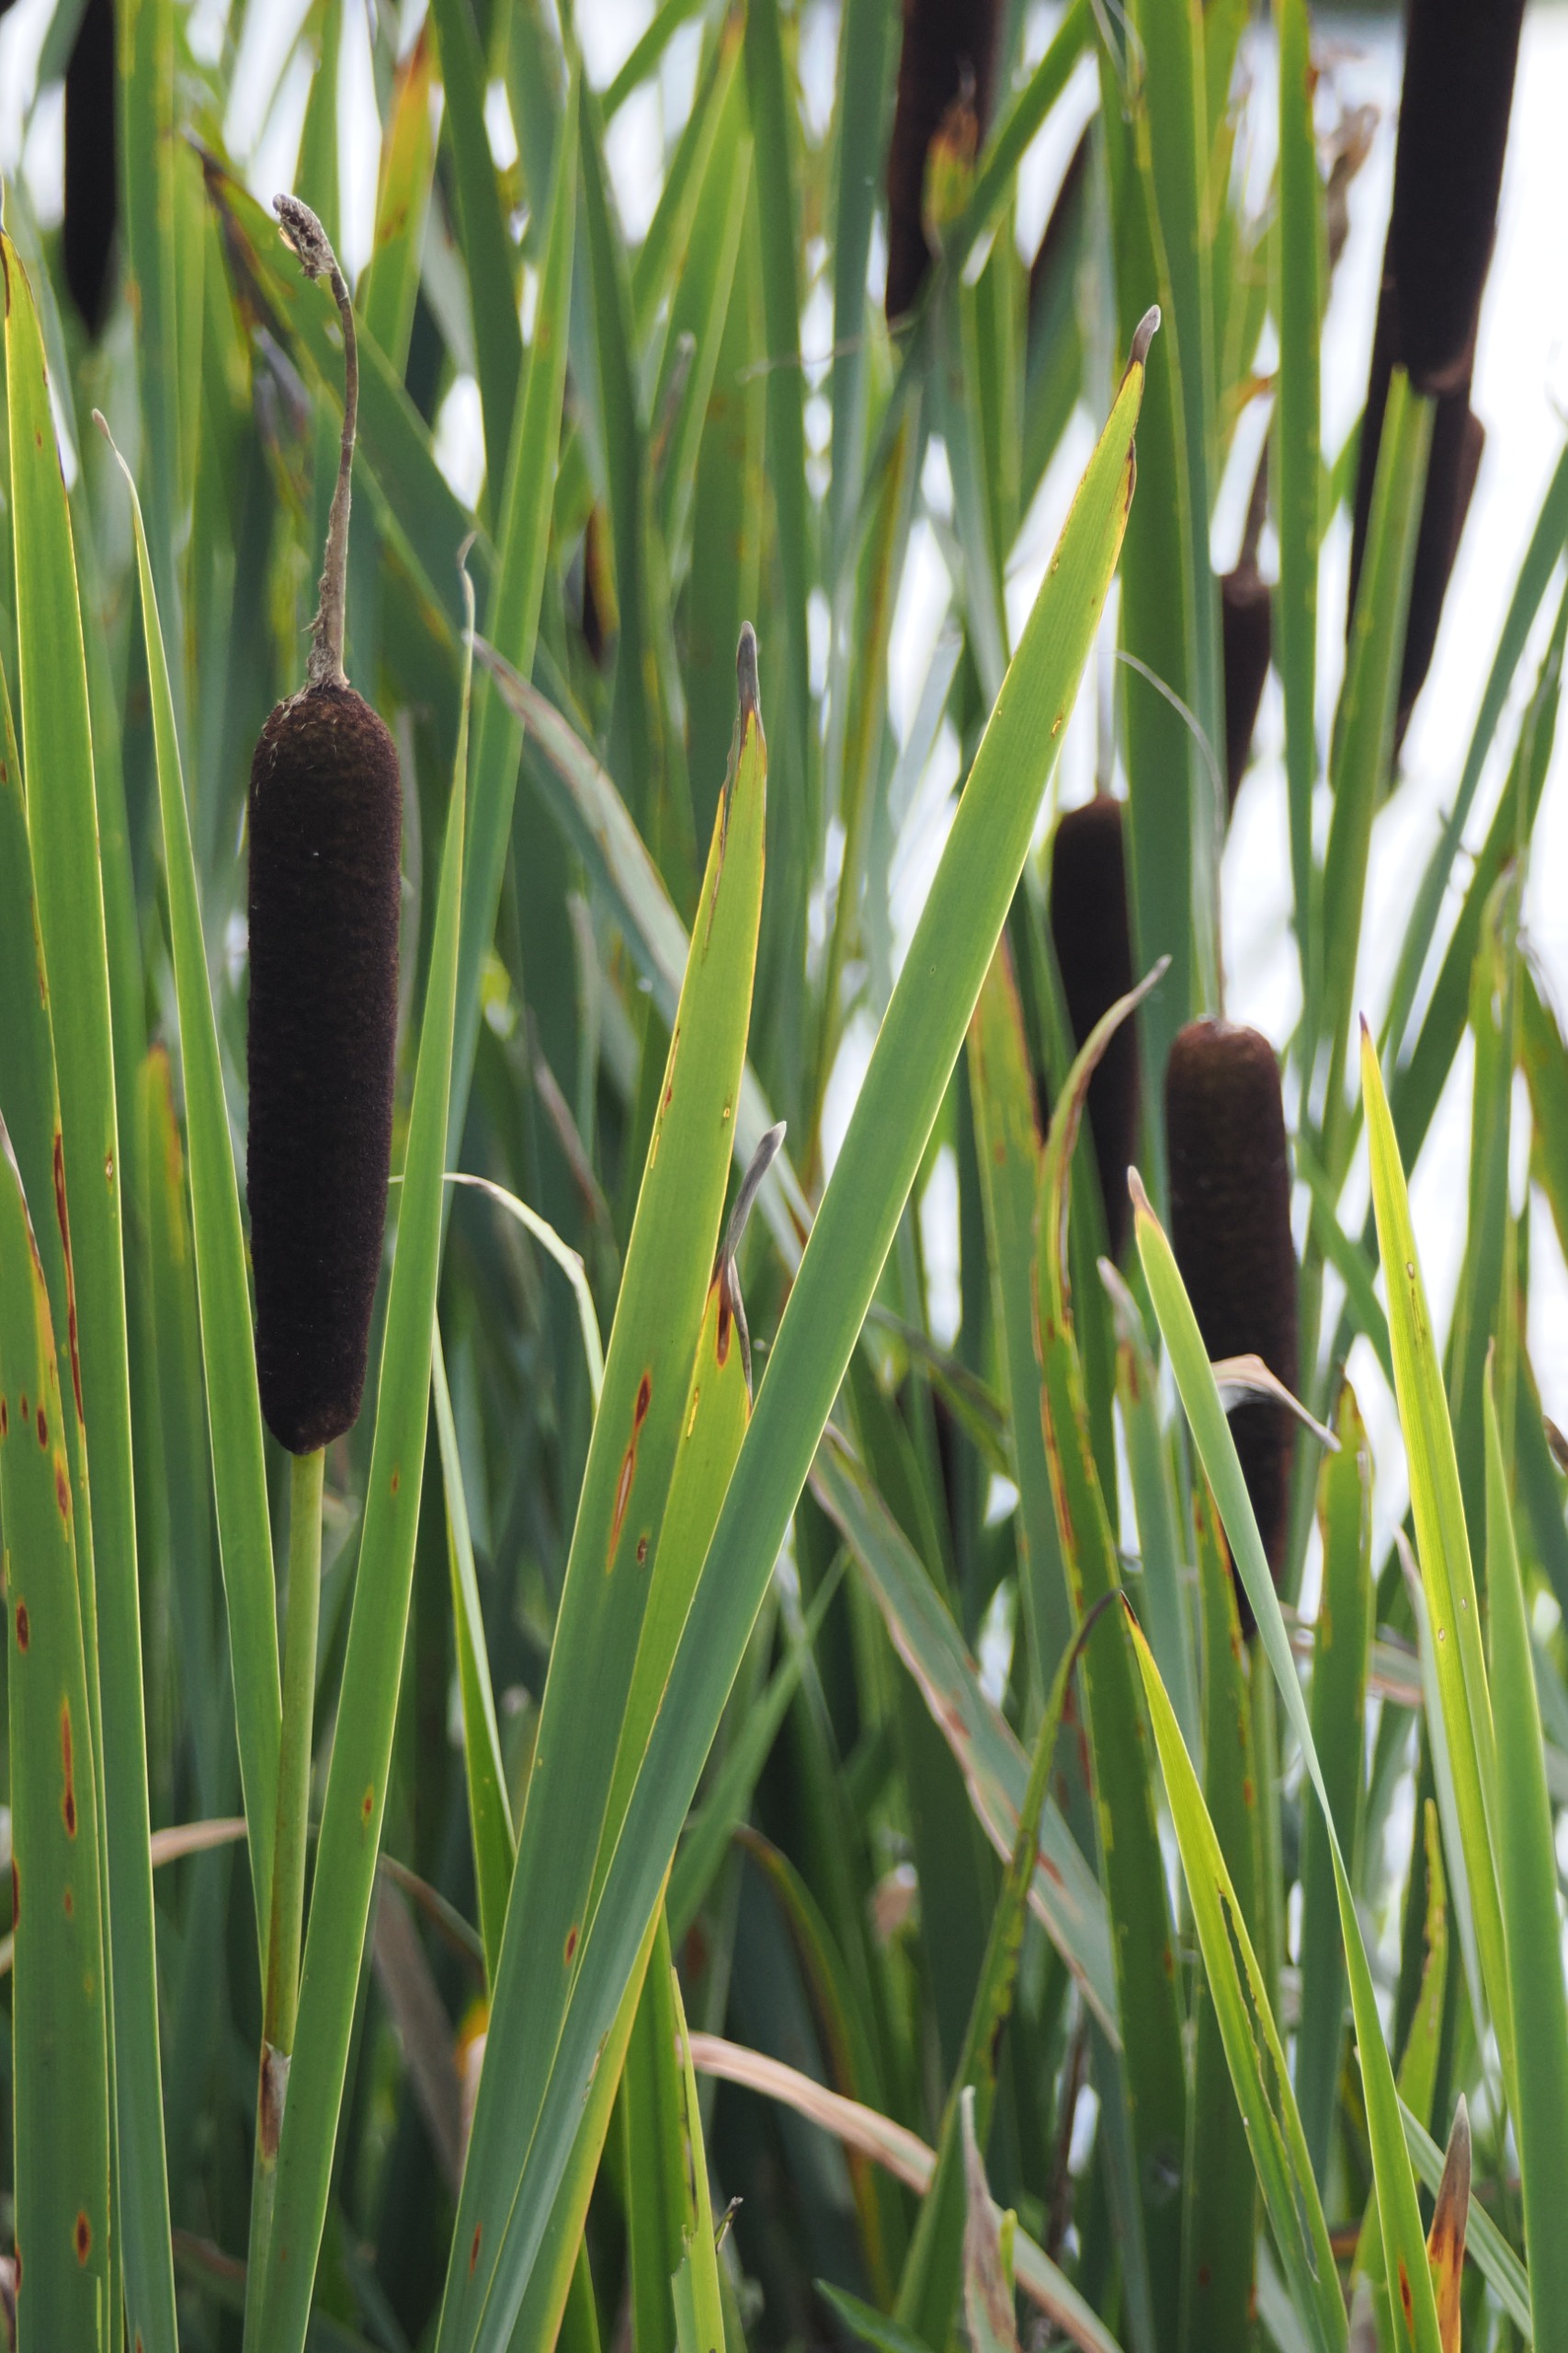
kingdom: Plantae
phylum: Tracheophyta
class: Liliopsida
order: Poales
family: Typhaceae
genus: Typha
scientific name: Typha latifolia
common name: Bredbladet dunhammer
